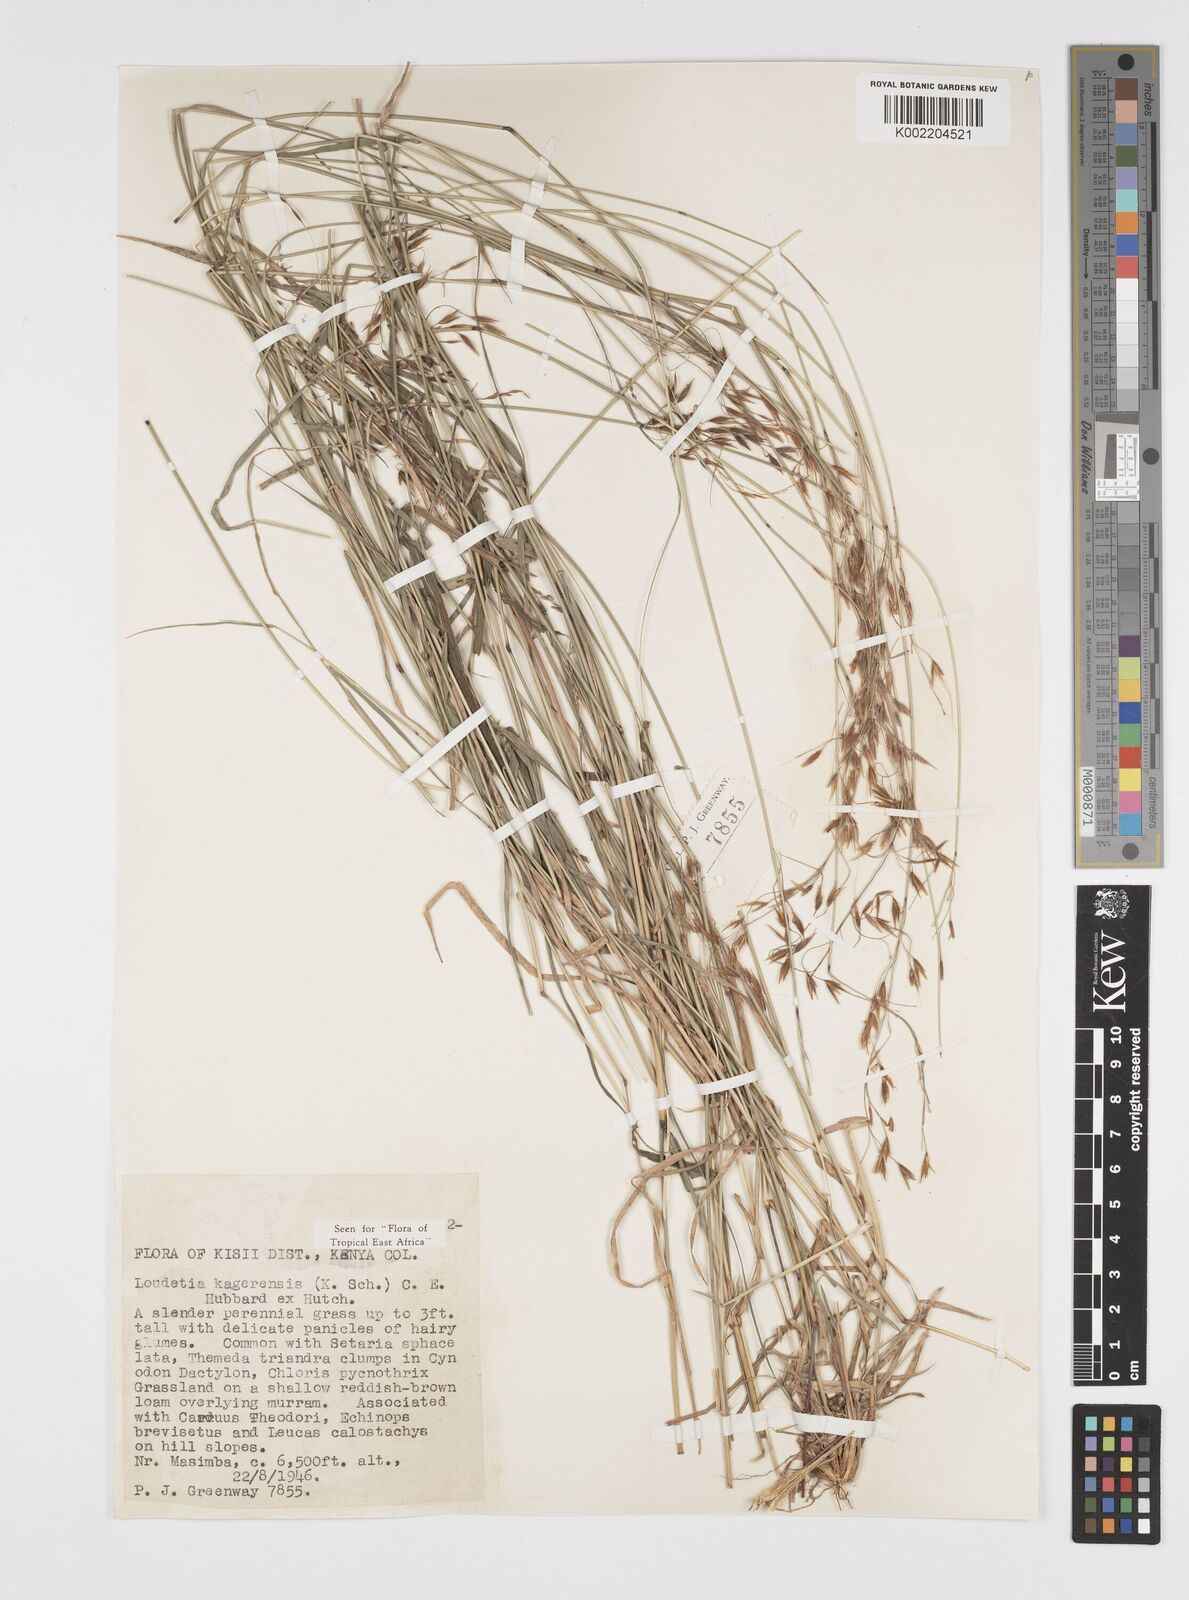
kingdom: Plantae
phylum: Tracheophyta
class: Liliopsida
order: Poales
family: Poaceae
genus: Loudetia
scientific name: Loudetia kagerensis
